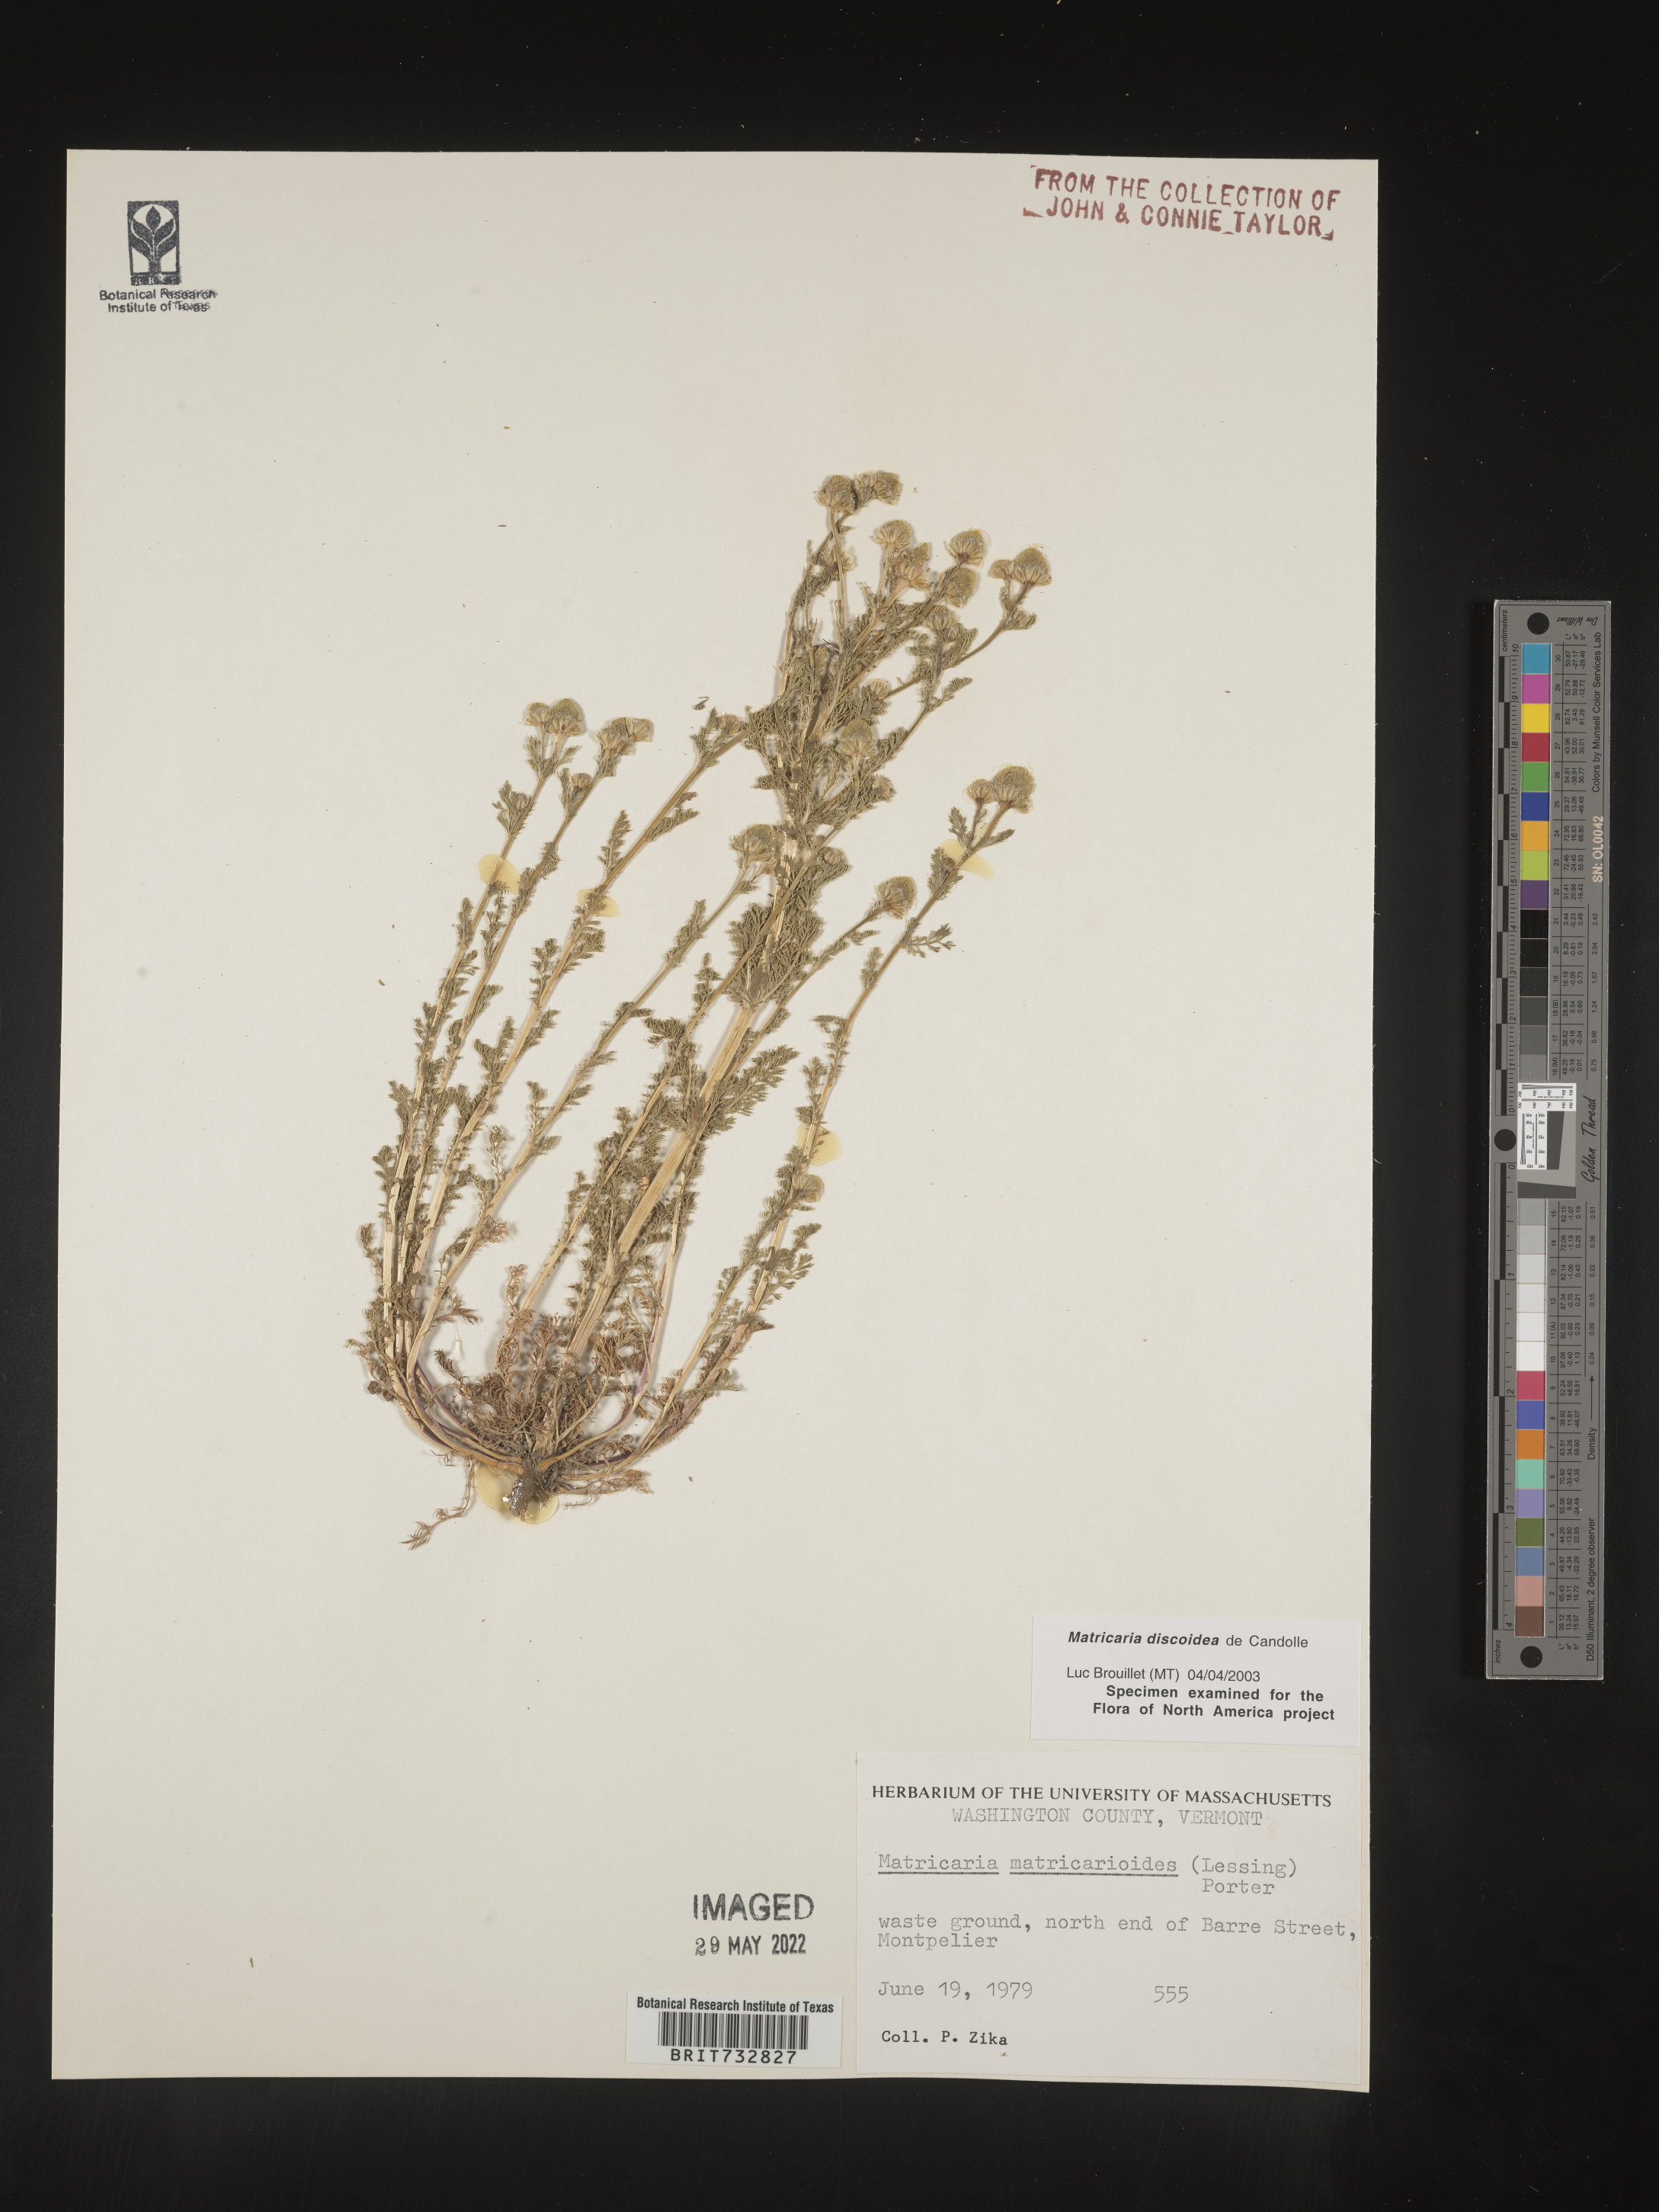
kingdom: Plantae
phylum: Tracheophyta
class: Magnoliopsida
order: Asterales
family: Asteraceae
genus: Matricaria
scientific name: Matricaria discoidea
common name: Disc mayweed
